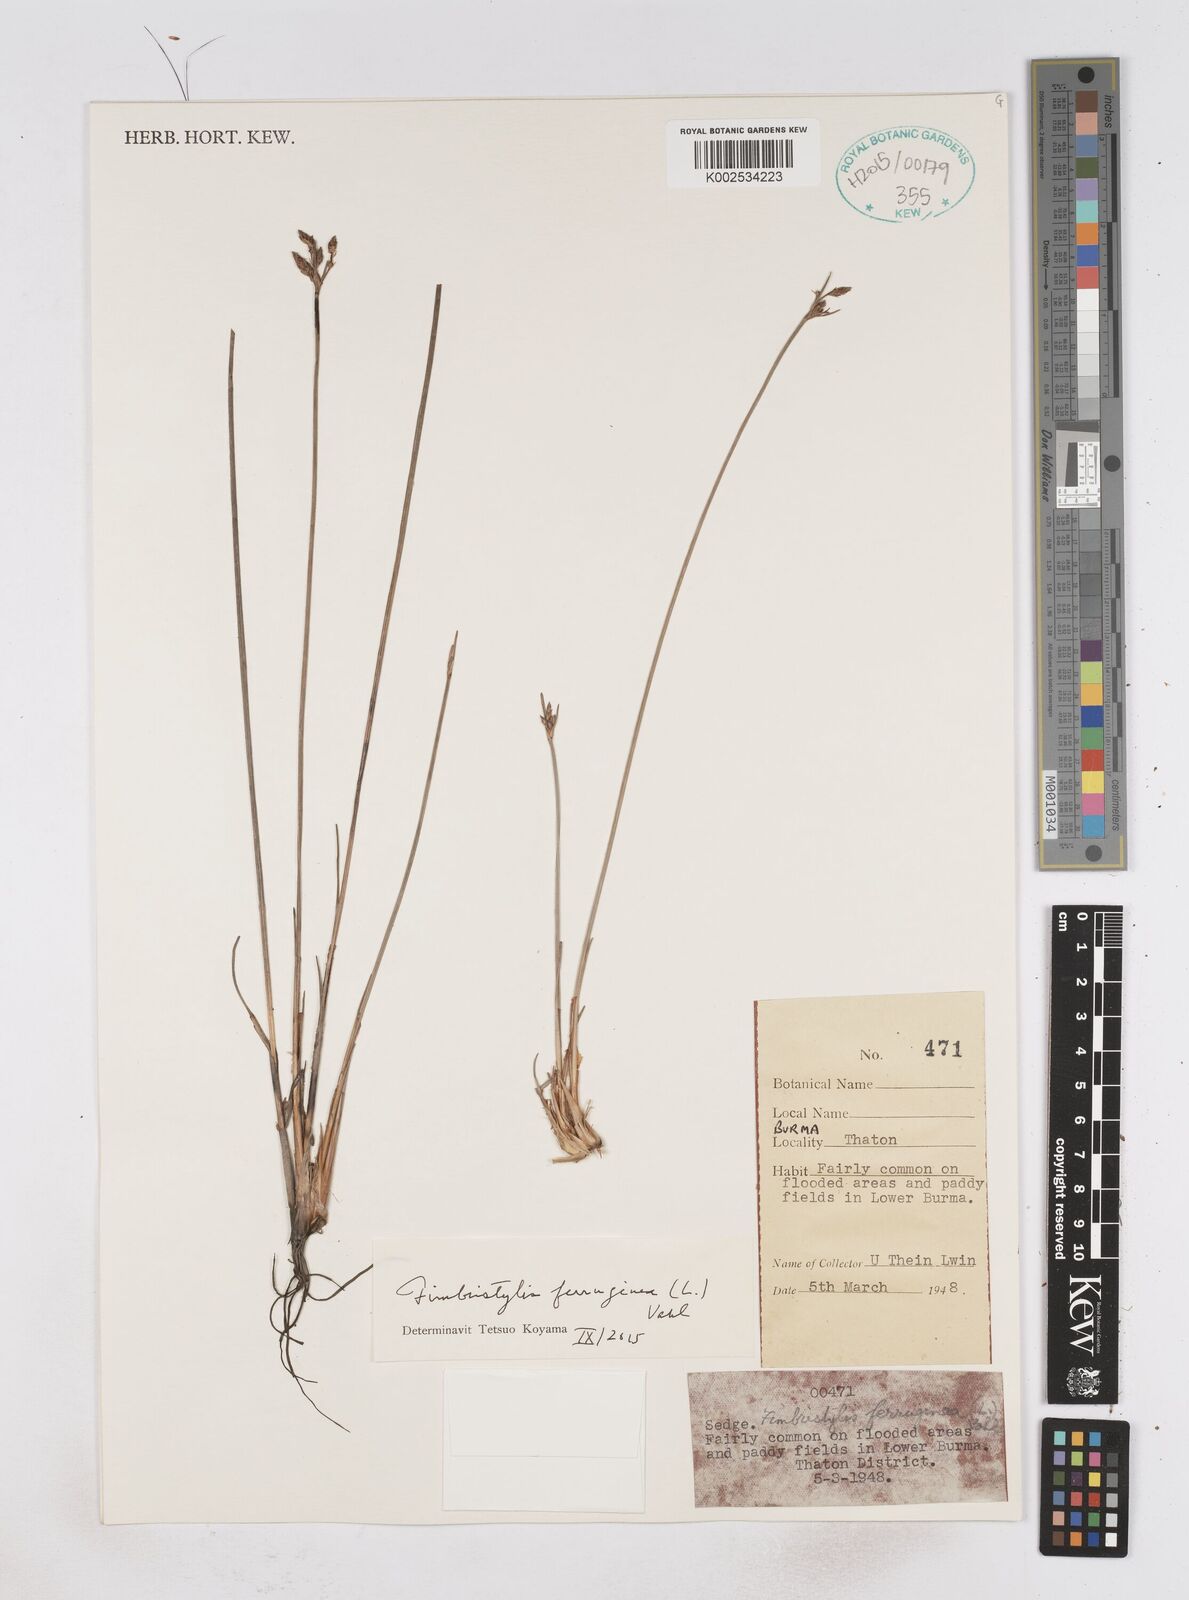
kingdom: Plantae
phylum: Tracheophyta
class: Liliopsida
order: Poales
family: Cyperaceae
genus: Fimbristylis
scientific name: Fimbristylis ferruginea
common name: West indian fimbry
